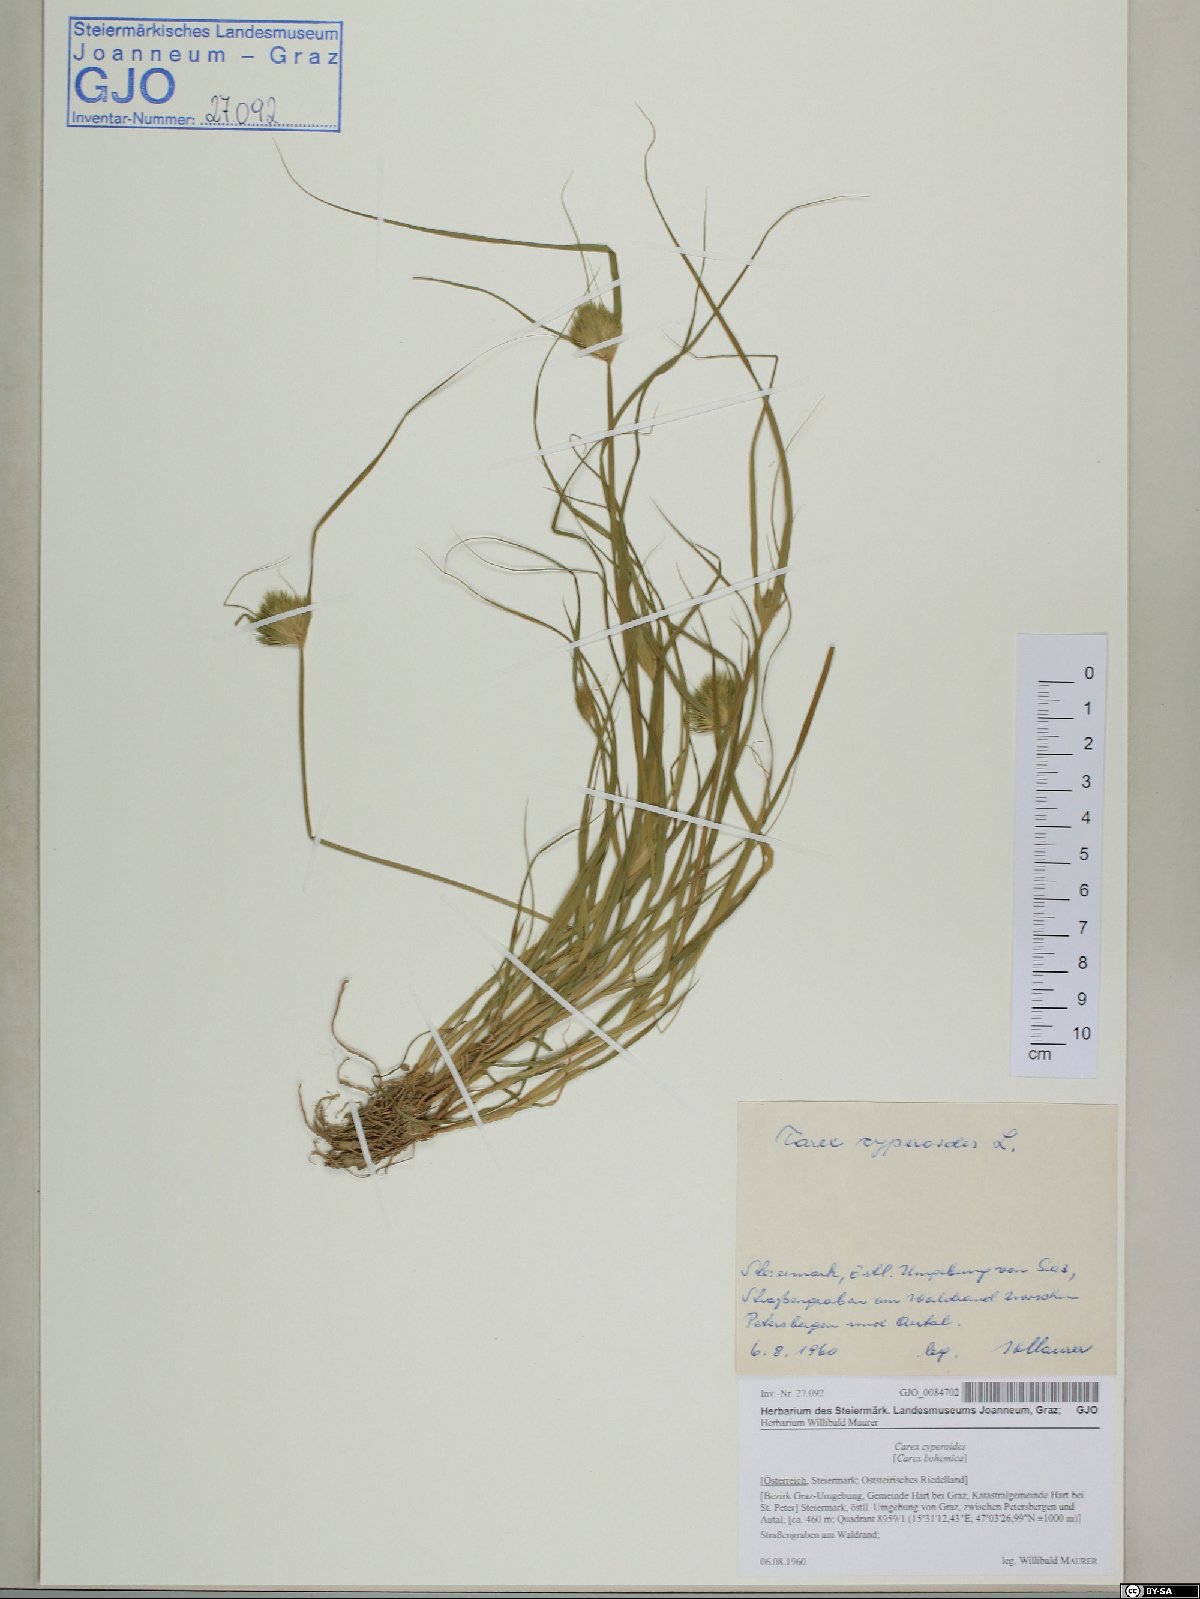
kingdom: Plantae
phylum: Tracheophyta
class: Liliopsida
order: Poales
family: Cyperaceae
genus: Carex
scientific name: Carex bohemica
